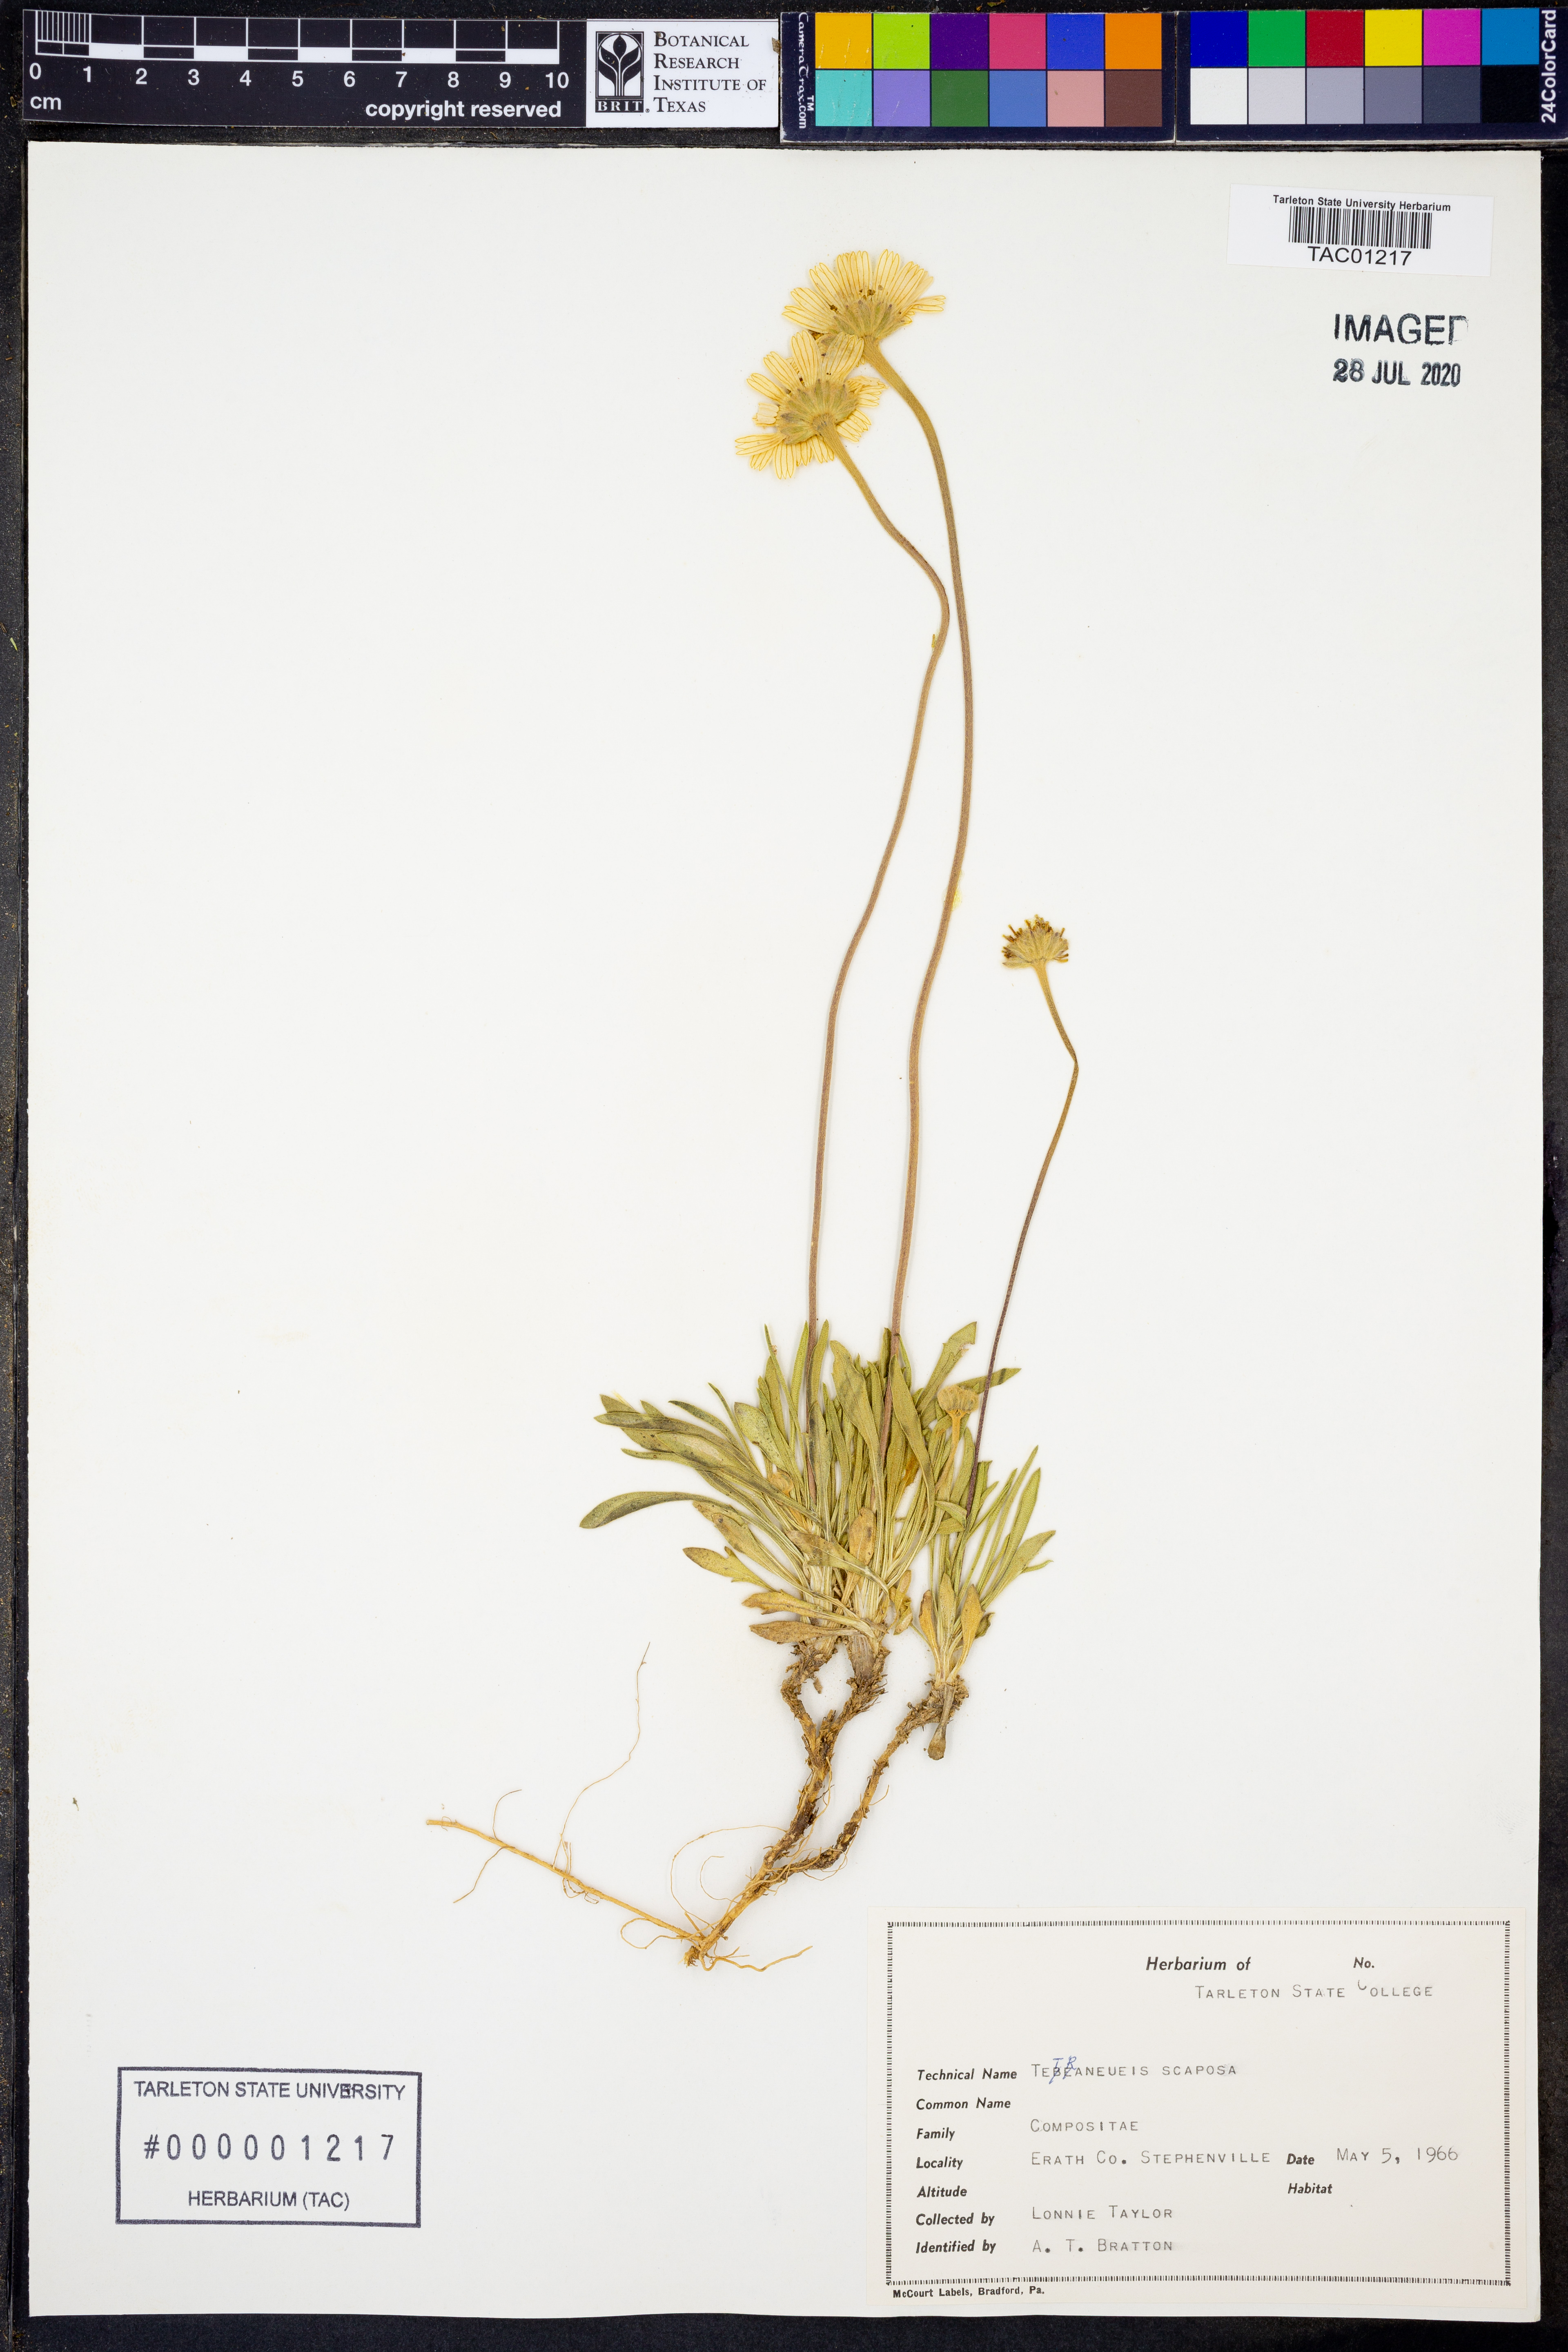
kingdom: Plantae
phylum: Tracheophyta
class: Magnoliopsida
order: Asterales
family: Asteraceae
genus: Tetraneuris
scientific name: Tetraneuris scaposa
